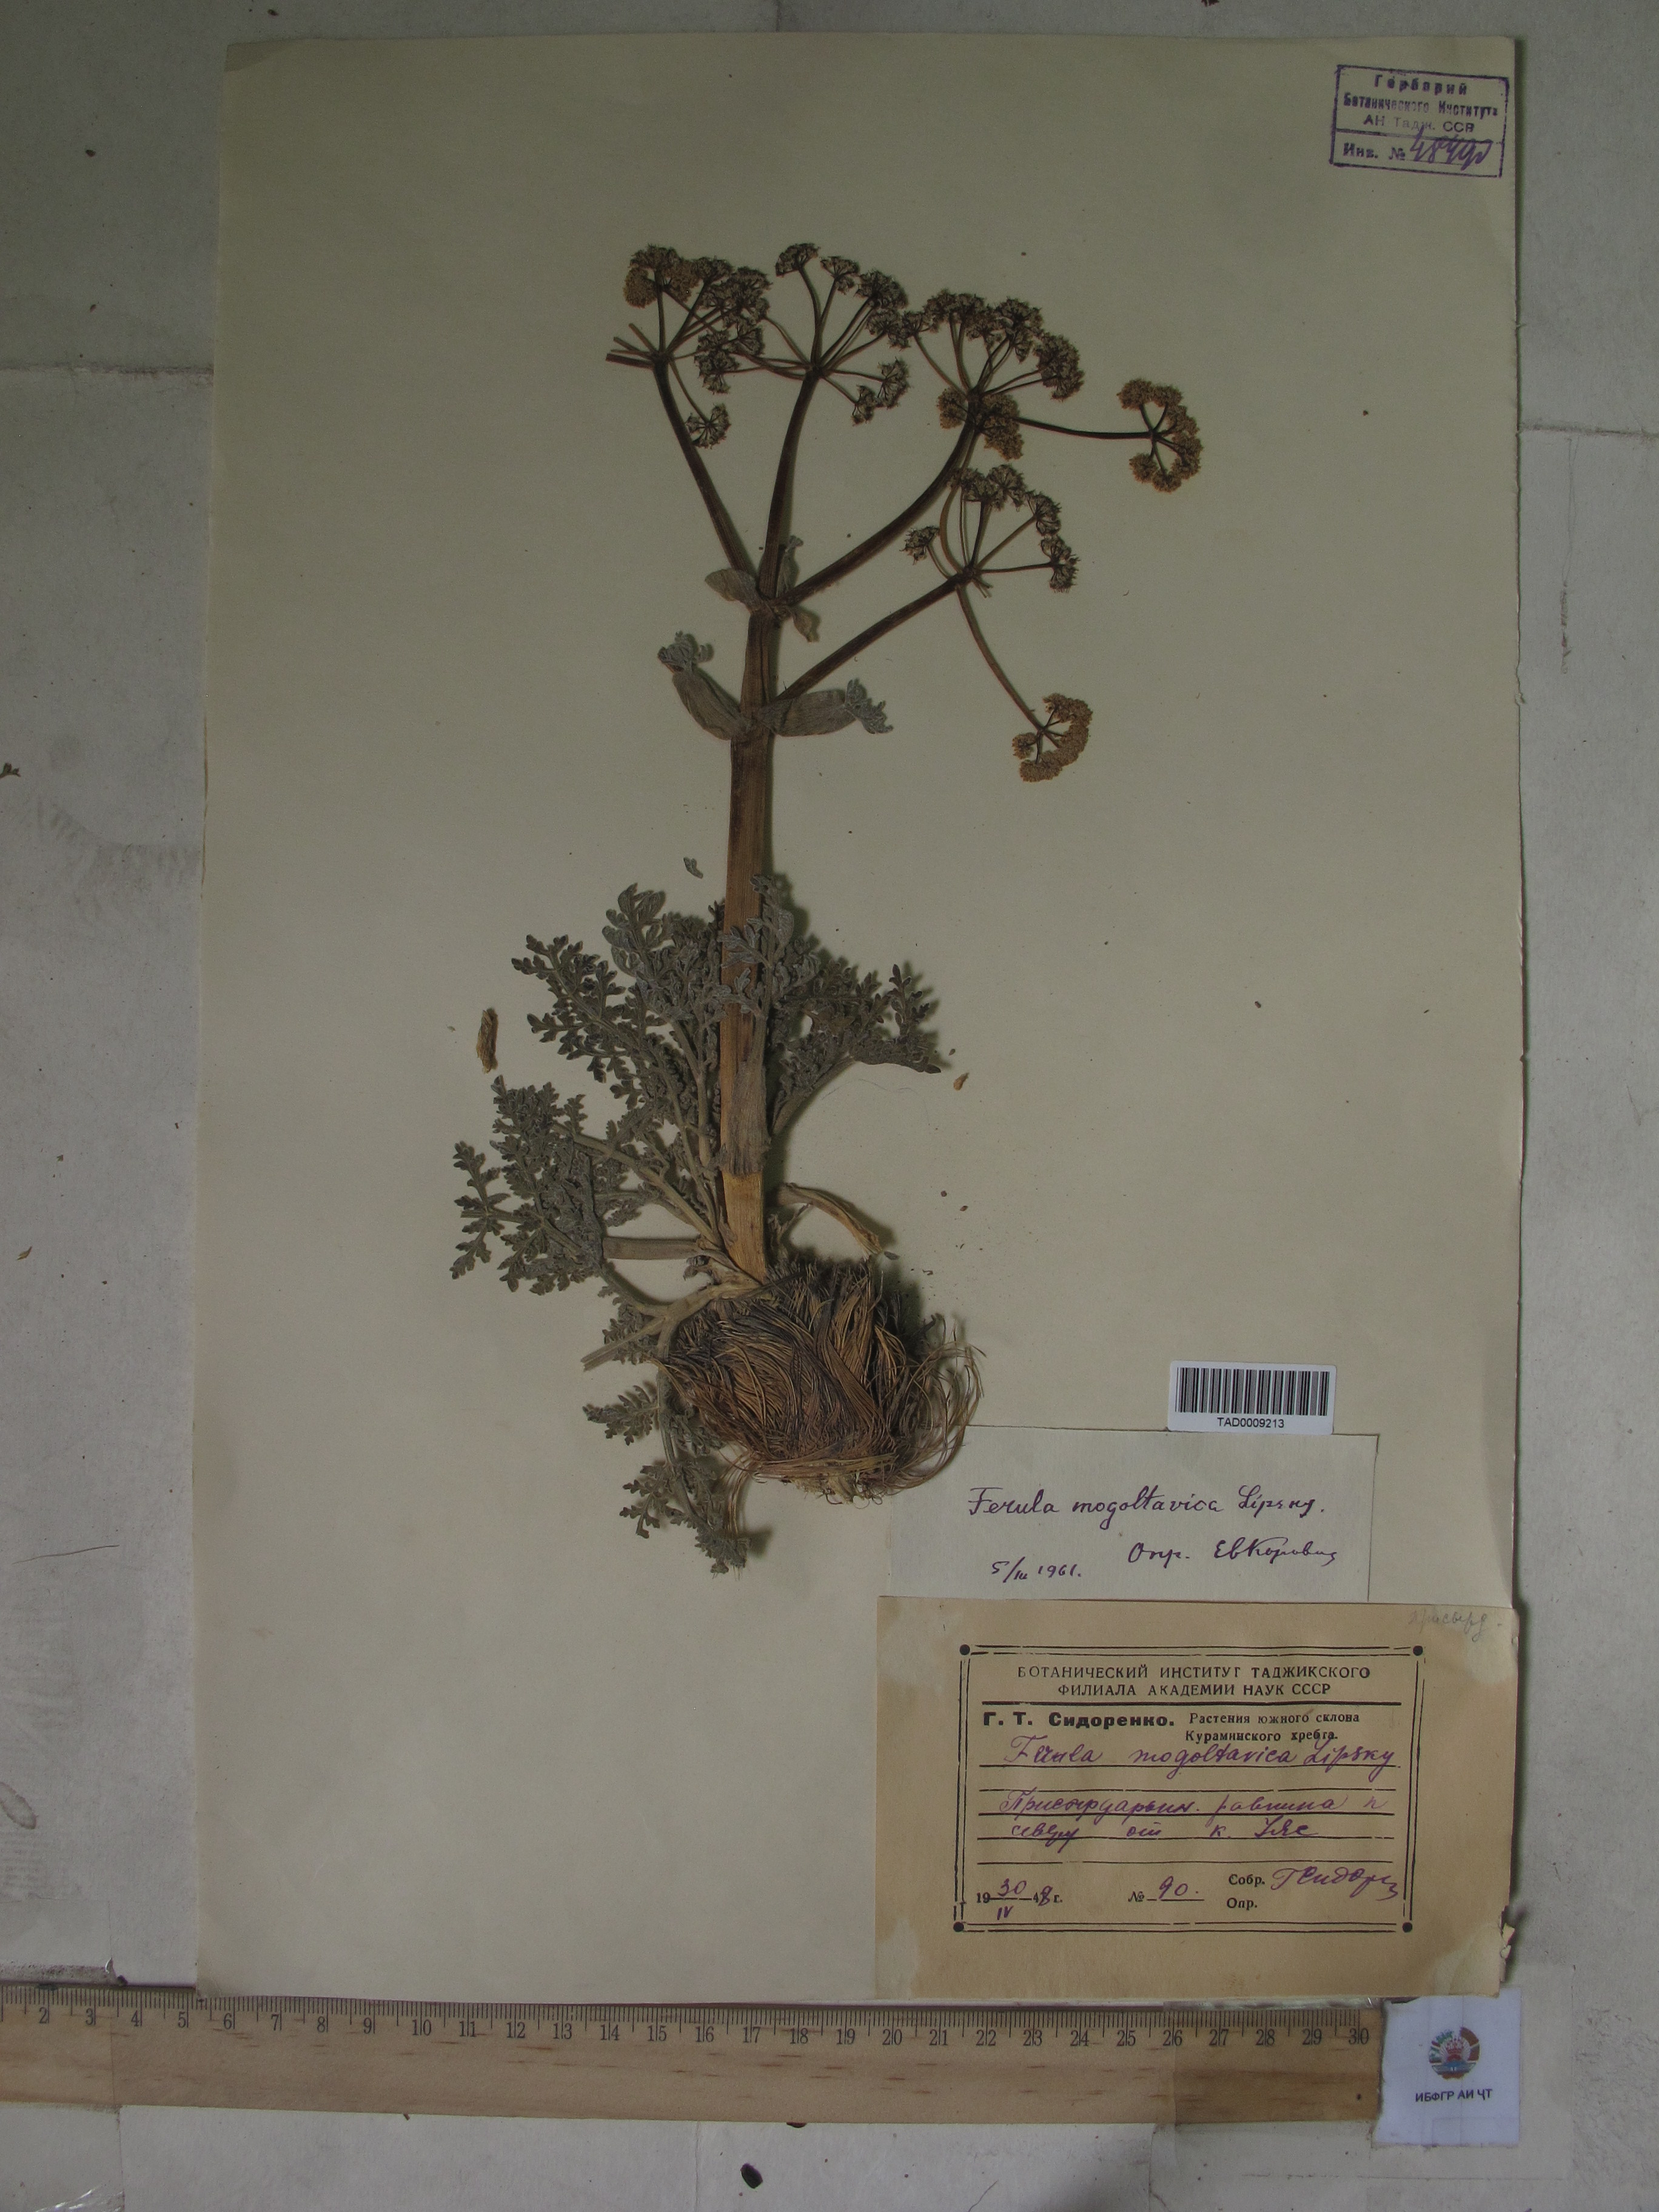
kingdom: Plantae
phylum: Tracheophyta
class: Magnoliopsida
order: Apiales
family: Apiaceae
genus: Ferula
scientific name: Ferula mogoltavica
